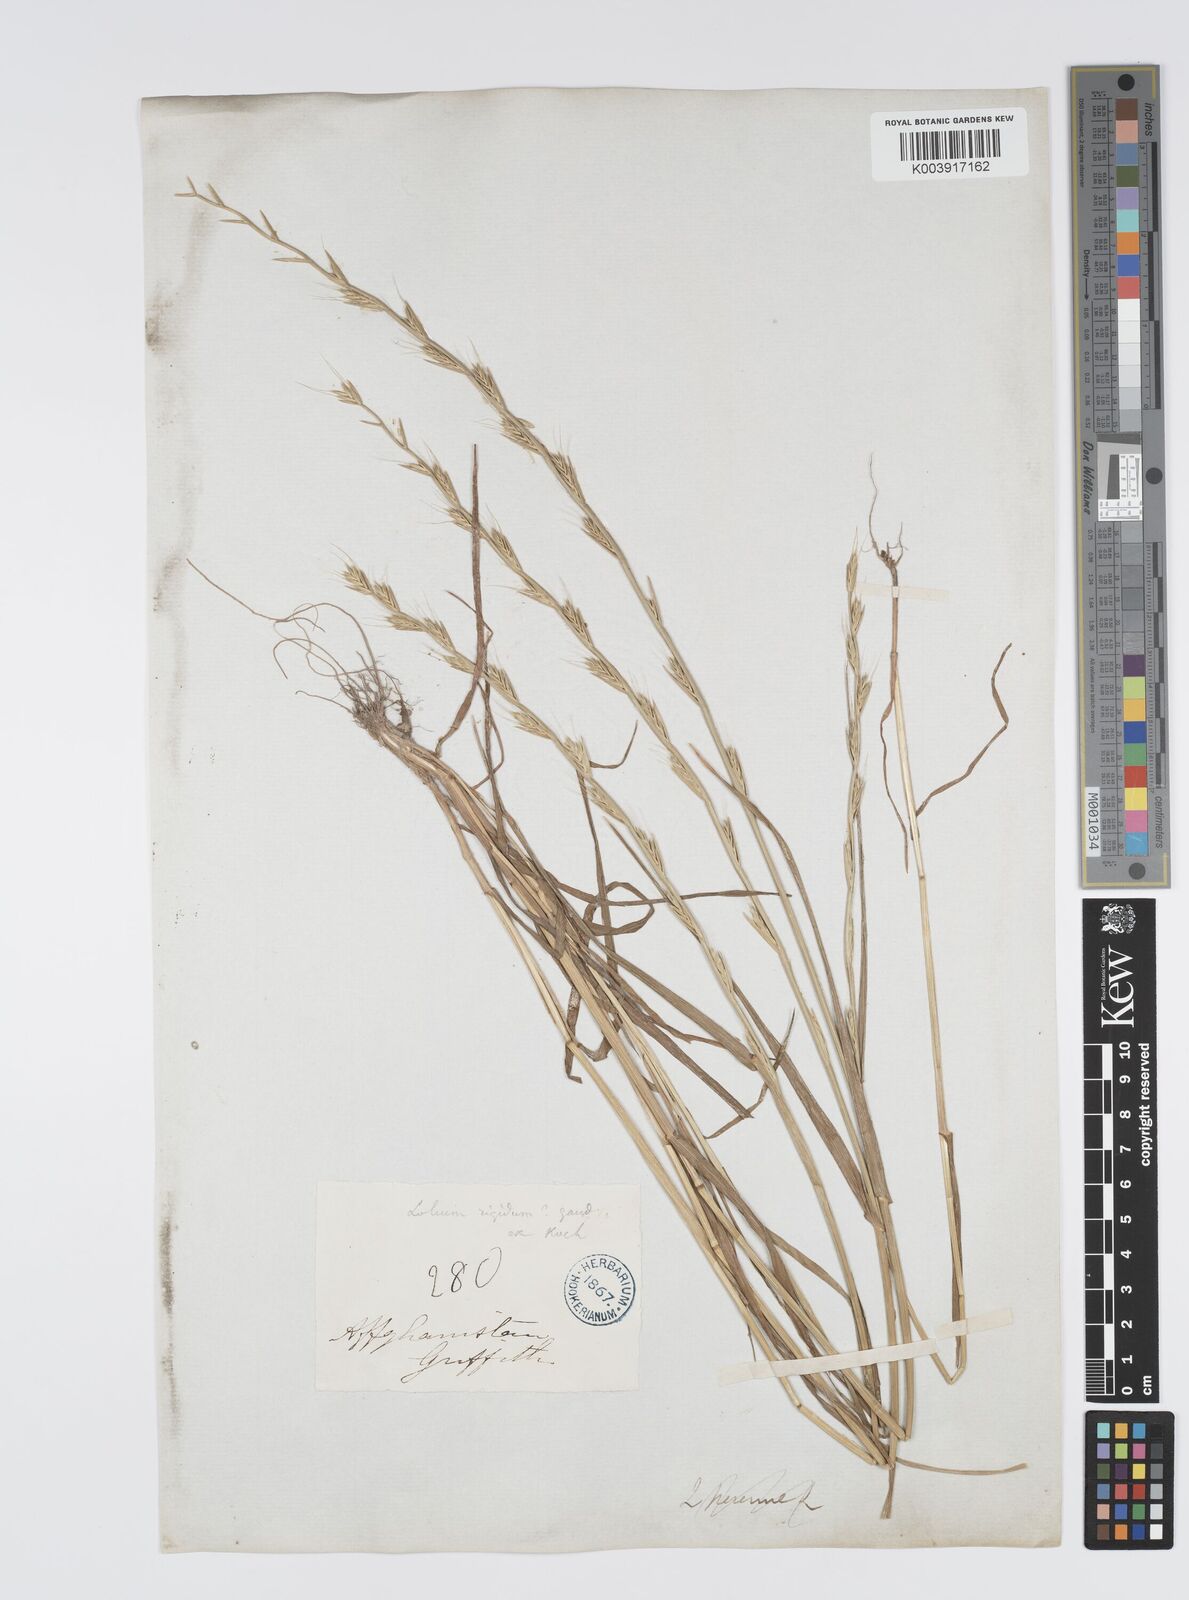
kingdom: Plantae
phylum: Tracheophyta
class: Liliopsida
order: Poales
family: Poaceae
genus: Lolium
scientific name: Lolium persicum
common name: Persian ryegrass
